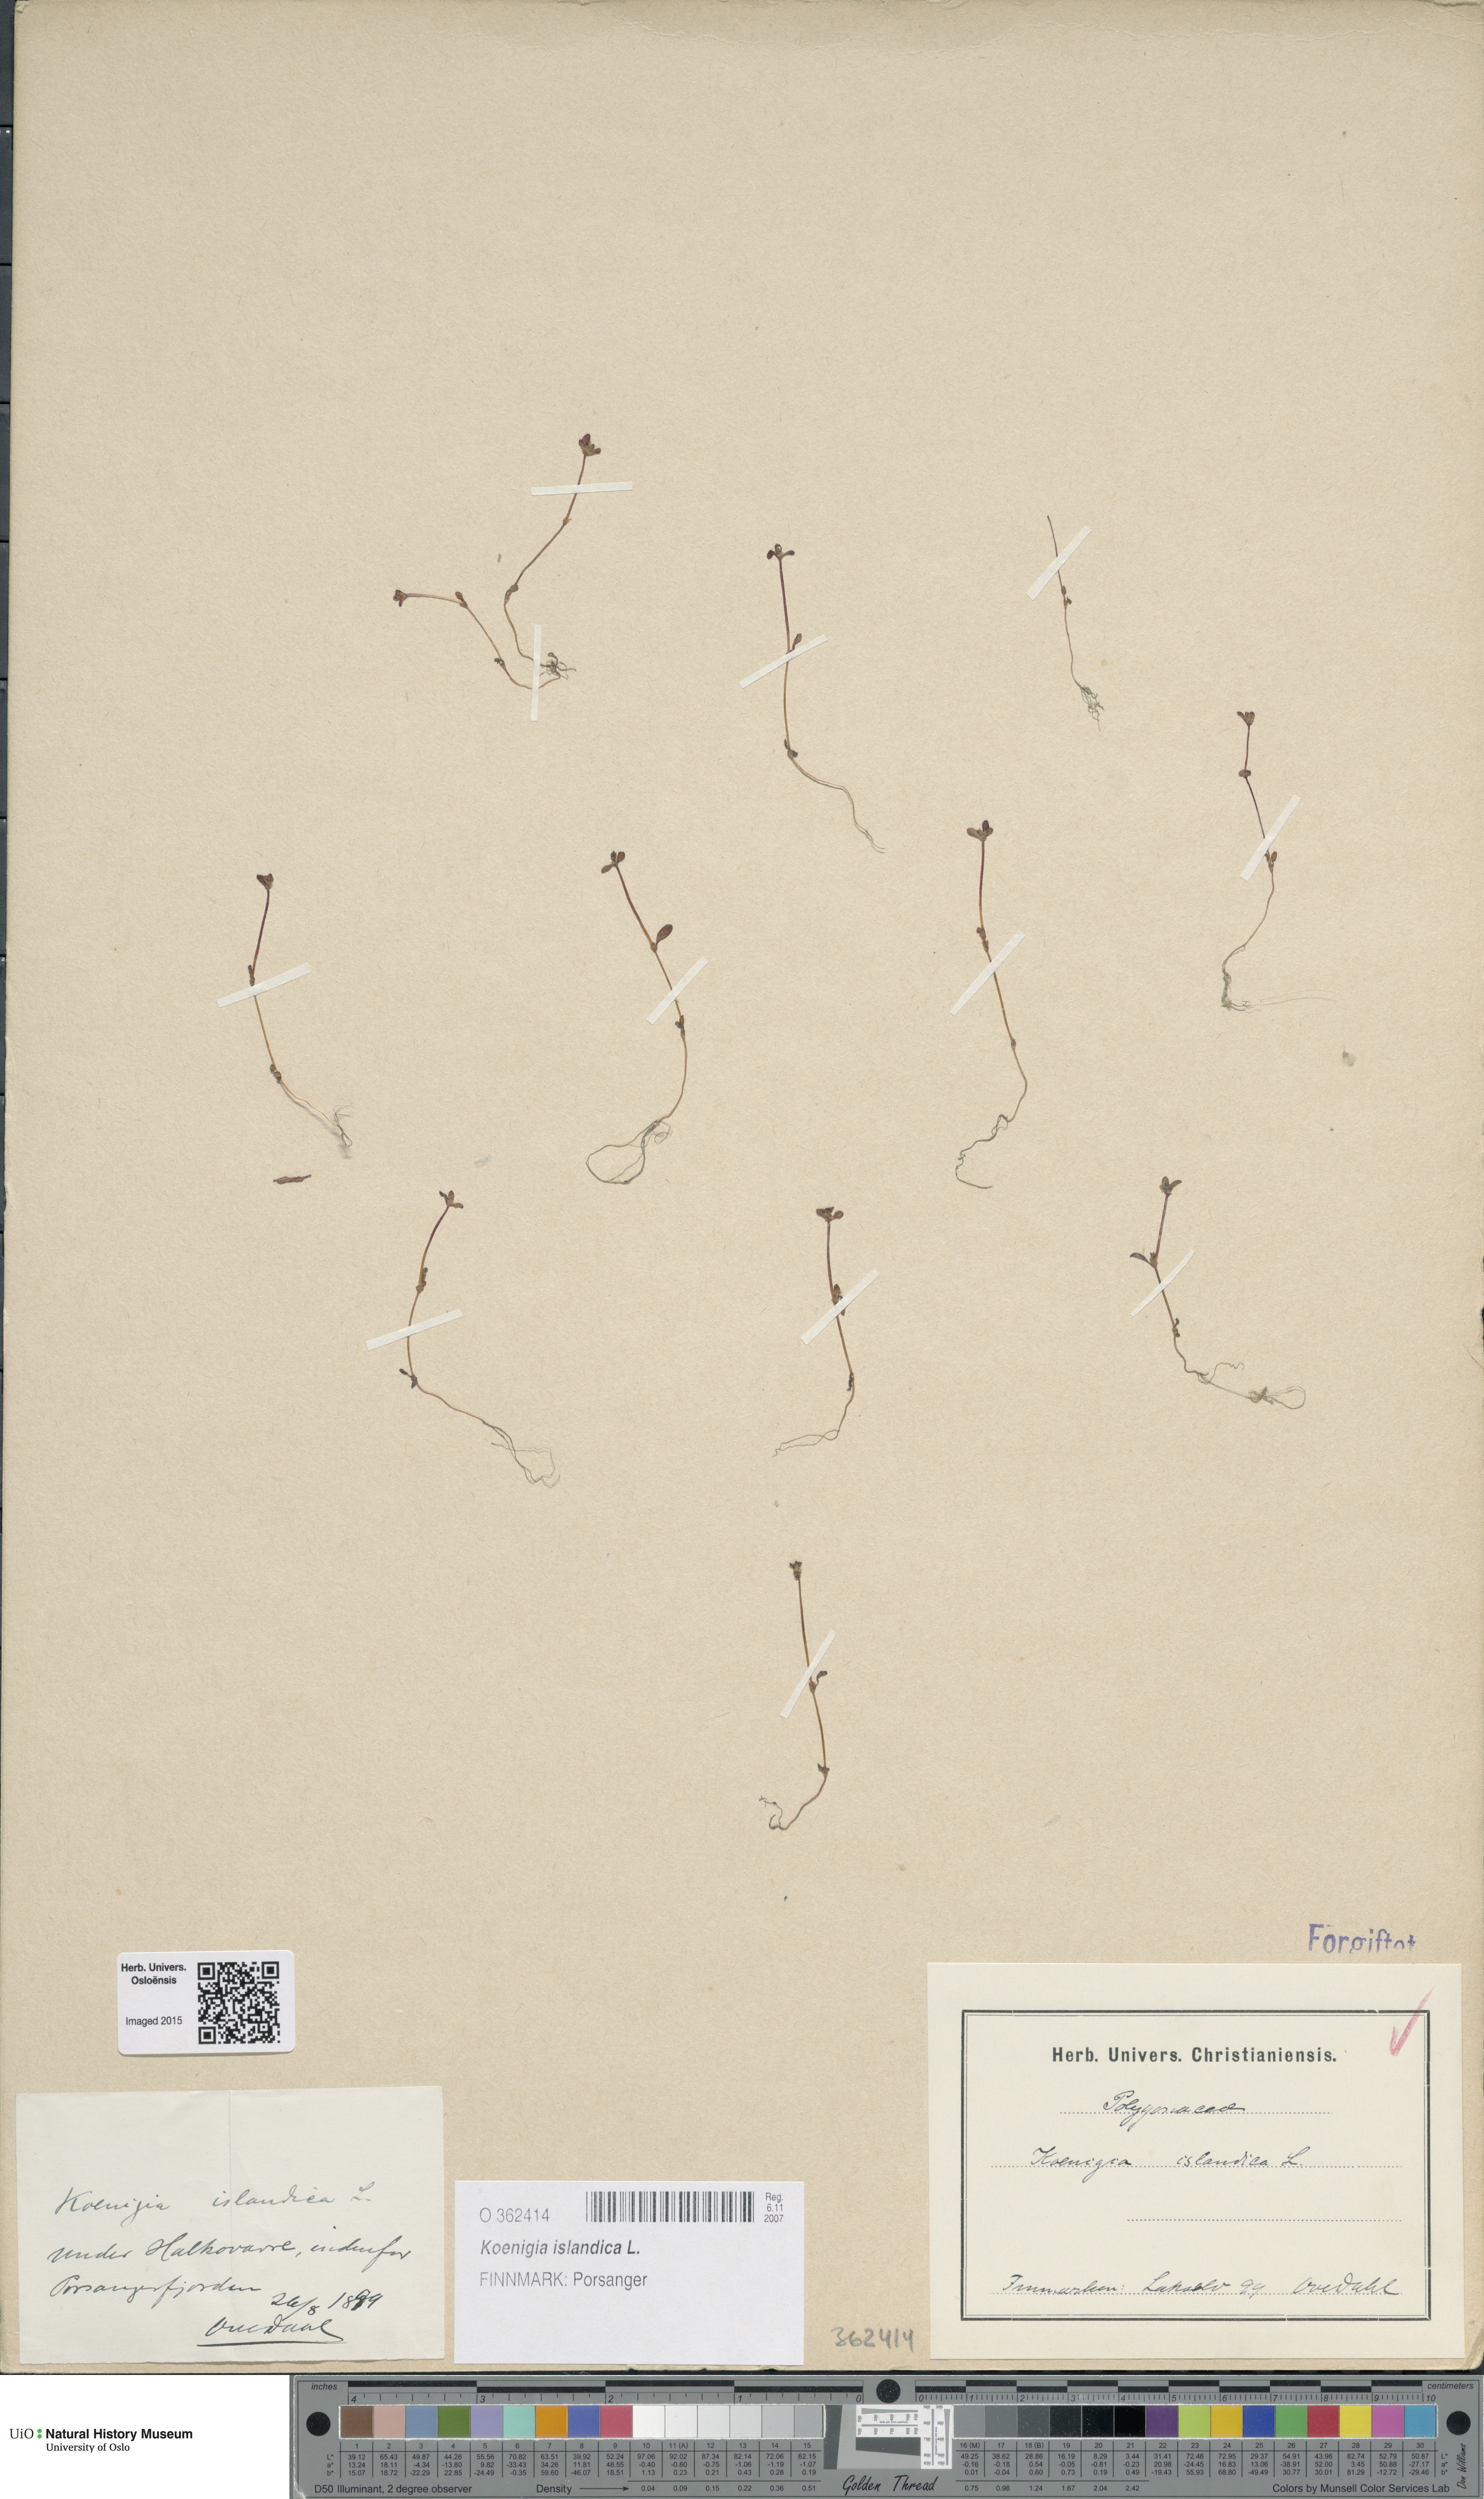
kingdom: Plantae
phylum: Tracheophyta
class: Magnoliopsida
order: Caryophyllales
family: Polygonaceae
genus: Koenigia
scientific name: Koenigia islandica
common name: Iceland-purslane
